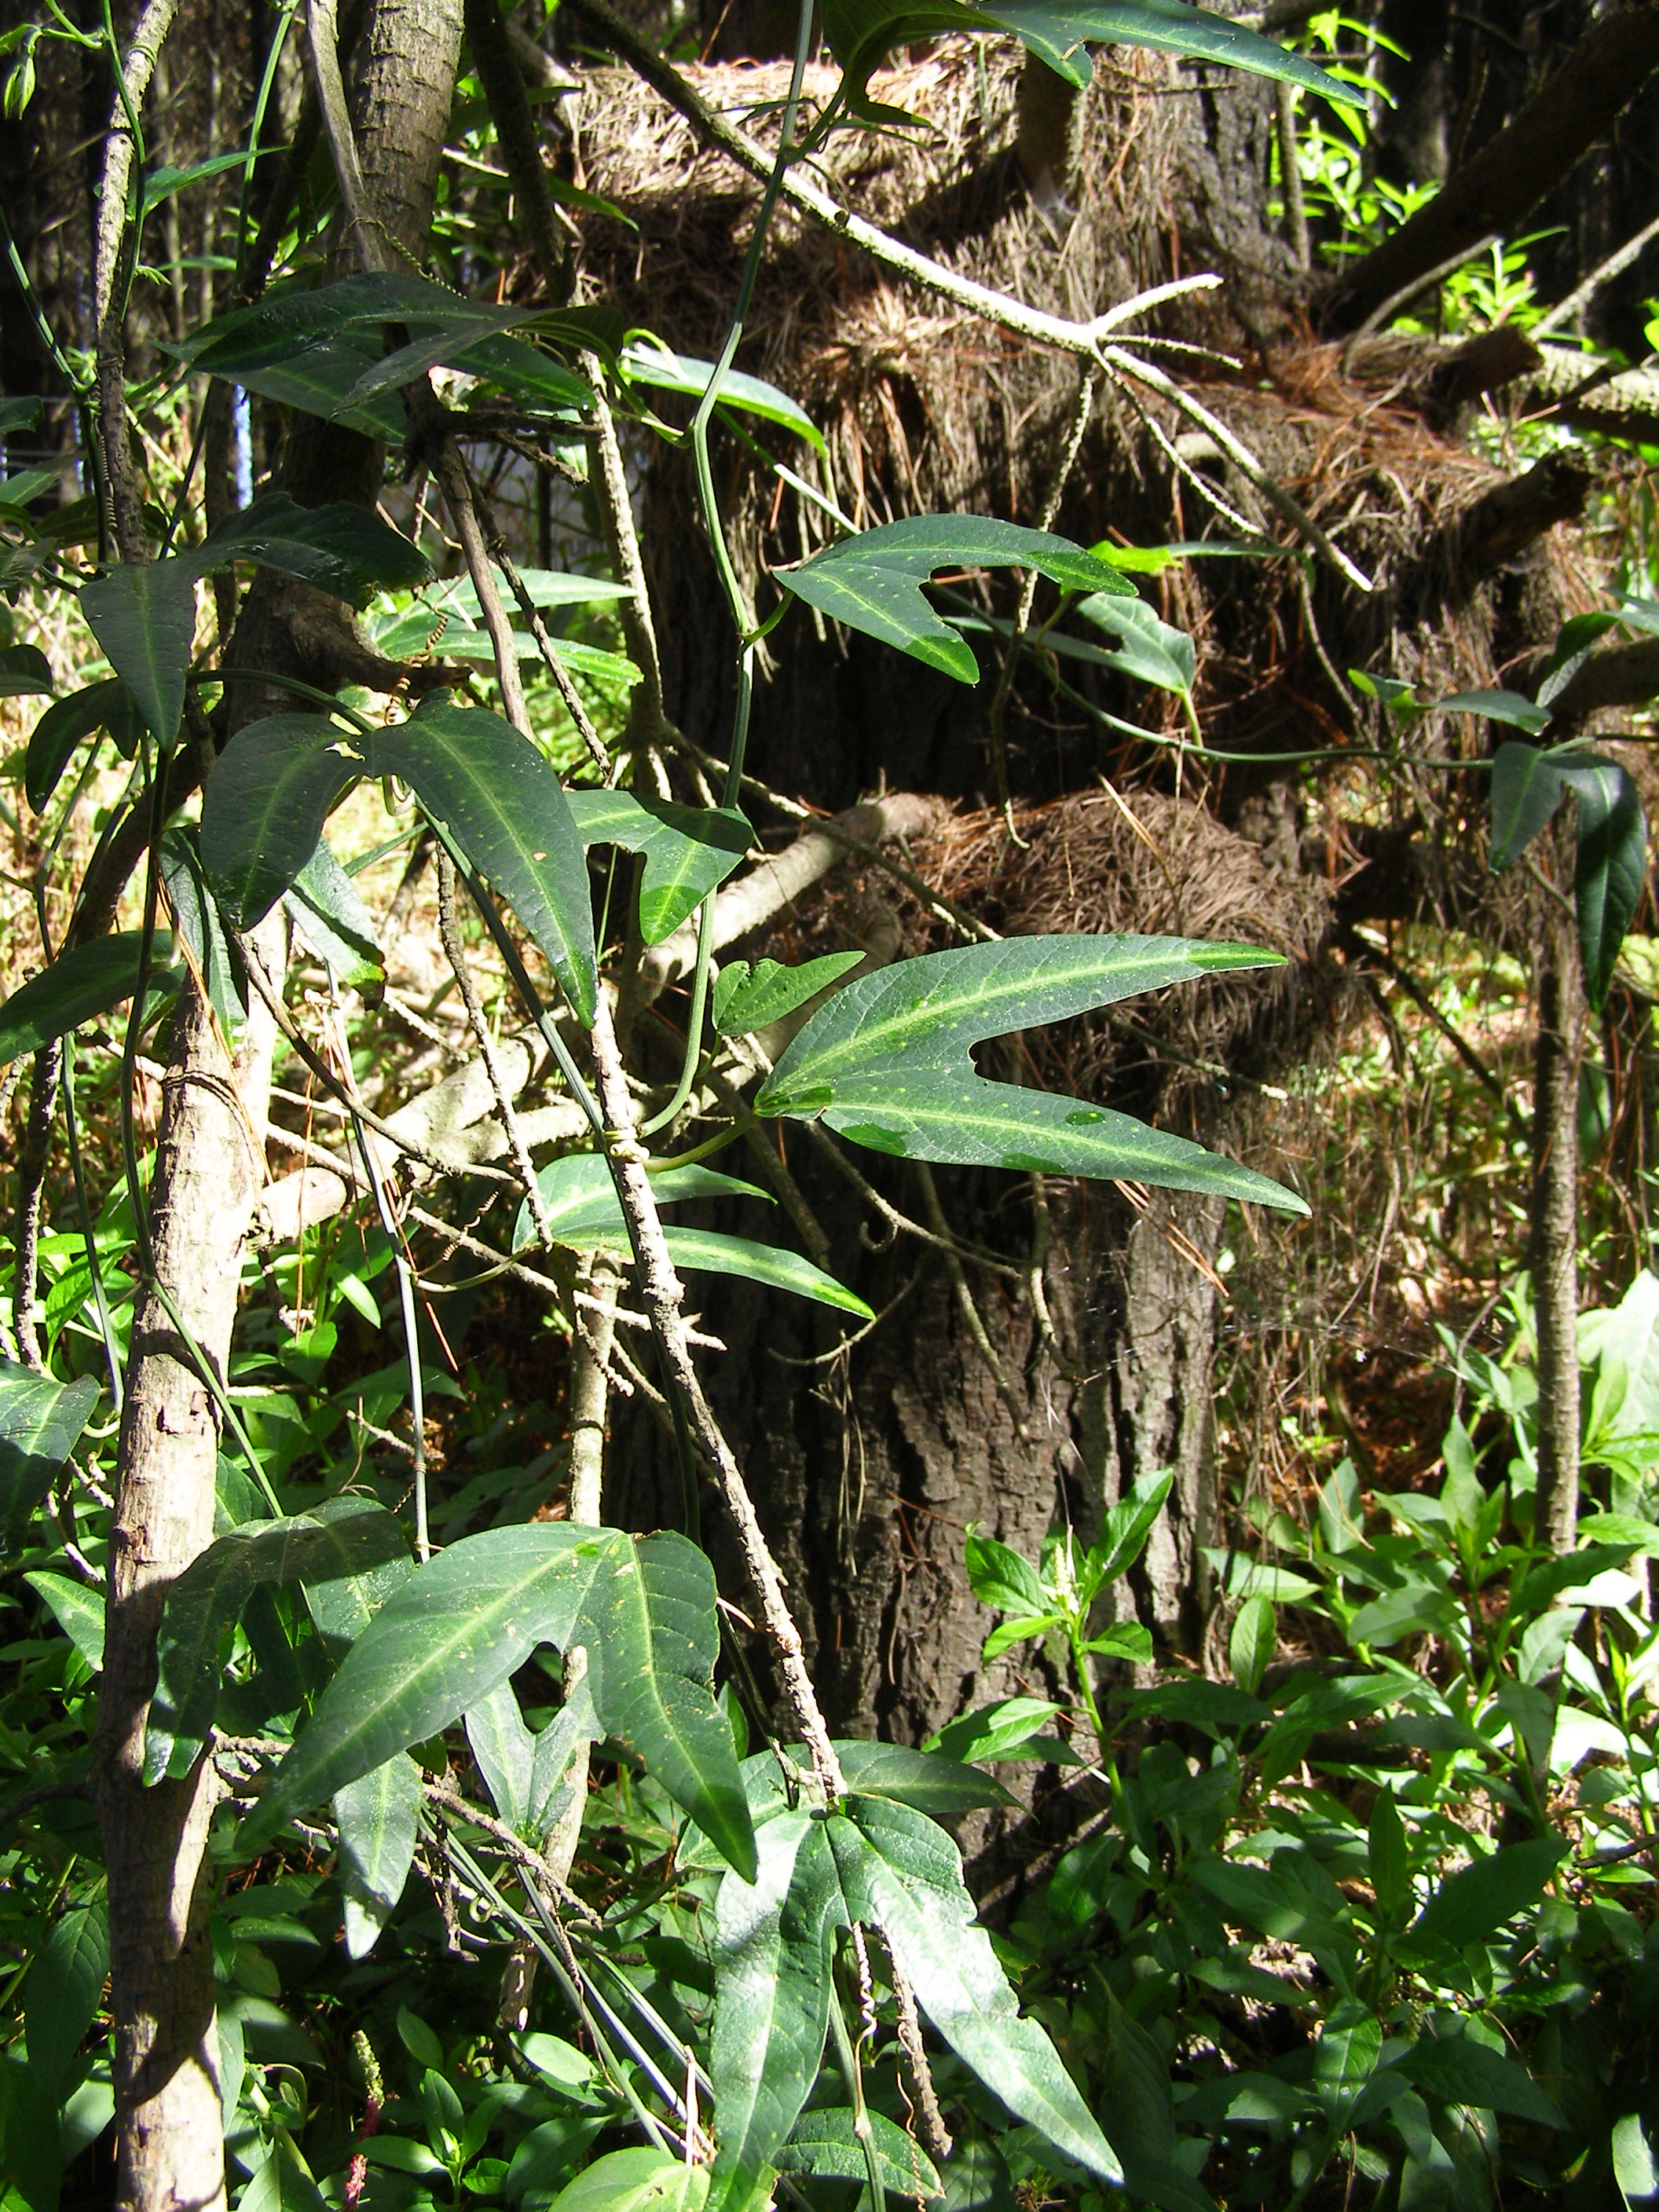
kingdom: Plantae
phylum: Tracheophyta
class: Magnoliopsida
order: Malpighiales
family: Passifloraceae
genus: Passiflora
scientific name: Passiflora apetala
